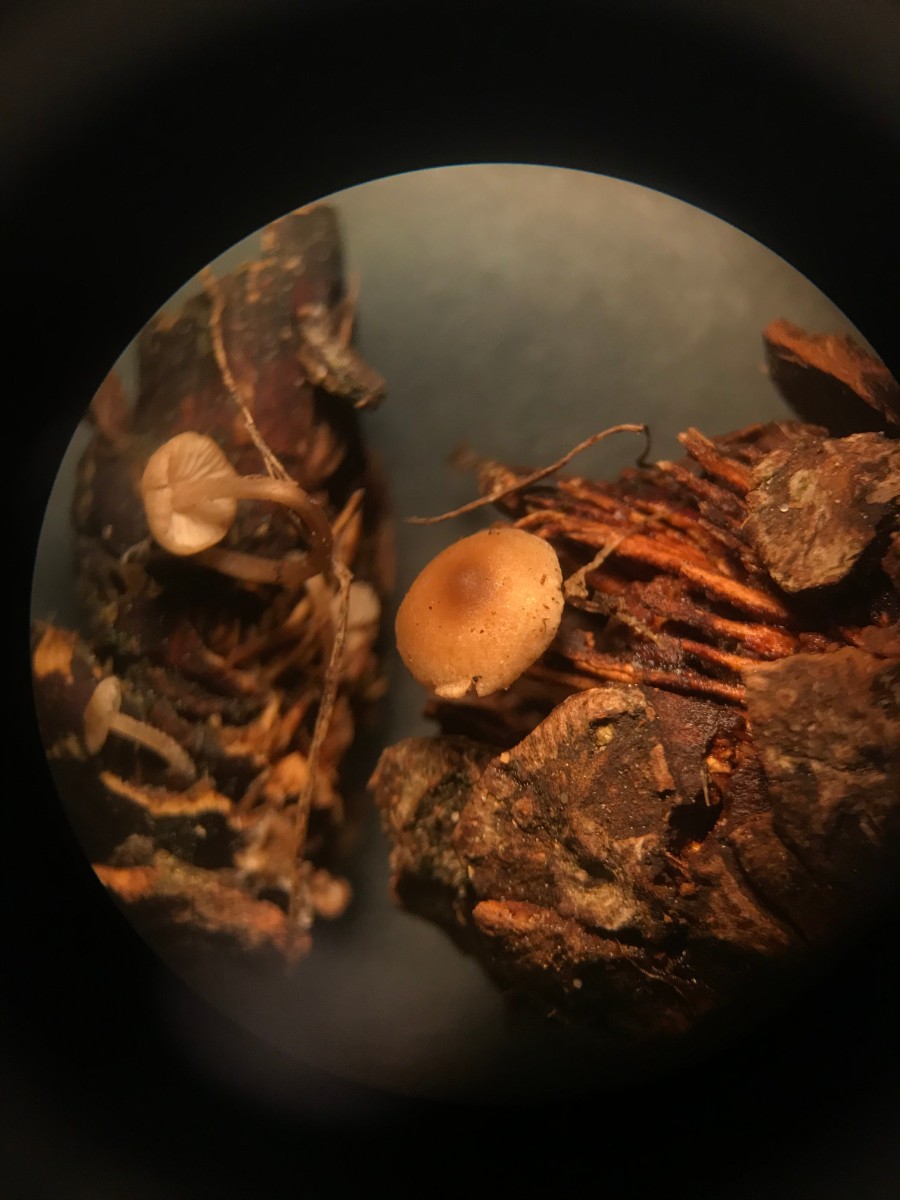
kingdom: Fungi
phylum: Basidiomycota
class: Agaricomycetes
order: Agaricales
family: Marasmiaceae
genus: Baeospora
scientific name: Baeospora myosura
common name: koglebruskhat
